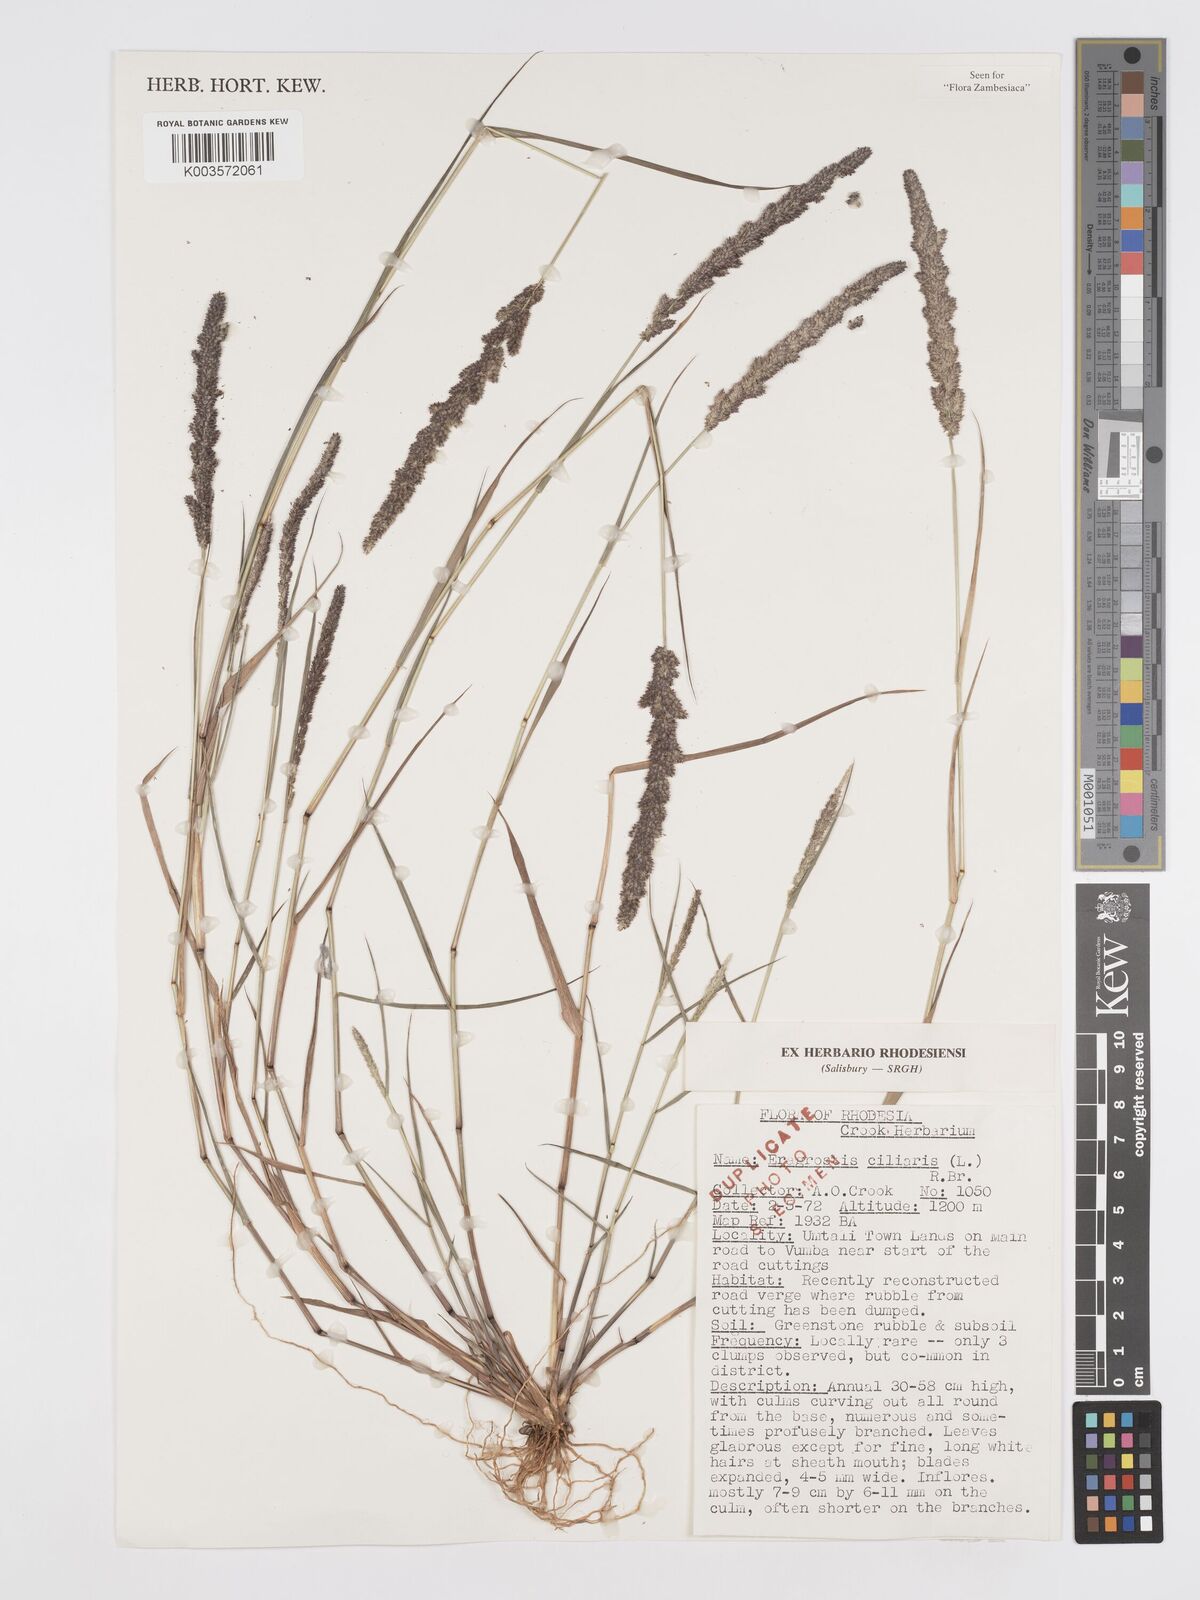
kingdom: Plantae
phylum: Tracheophyta
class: Liliopsida
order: Poales
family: Poaceae
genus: Eragrostis
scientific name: Eragrostis ciliaris
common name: Gophertail lovegrass
